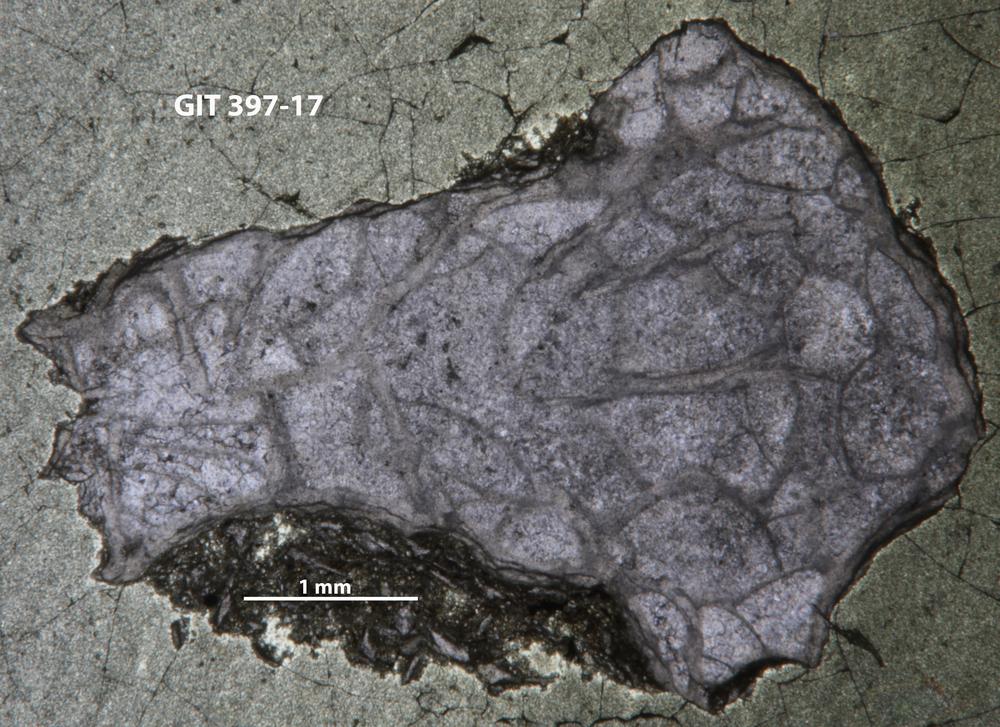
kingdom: Animalia
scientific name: Animalia
